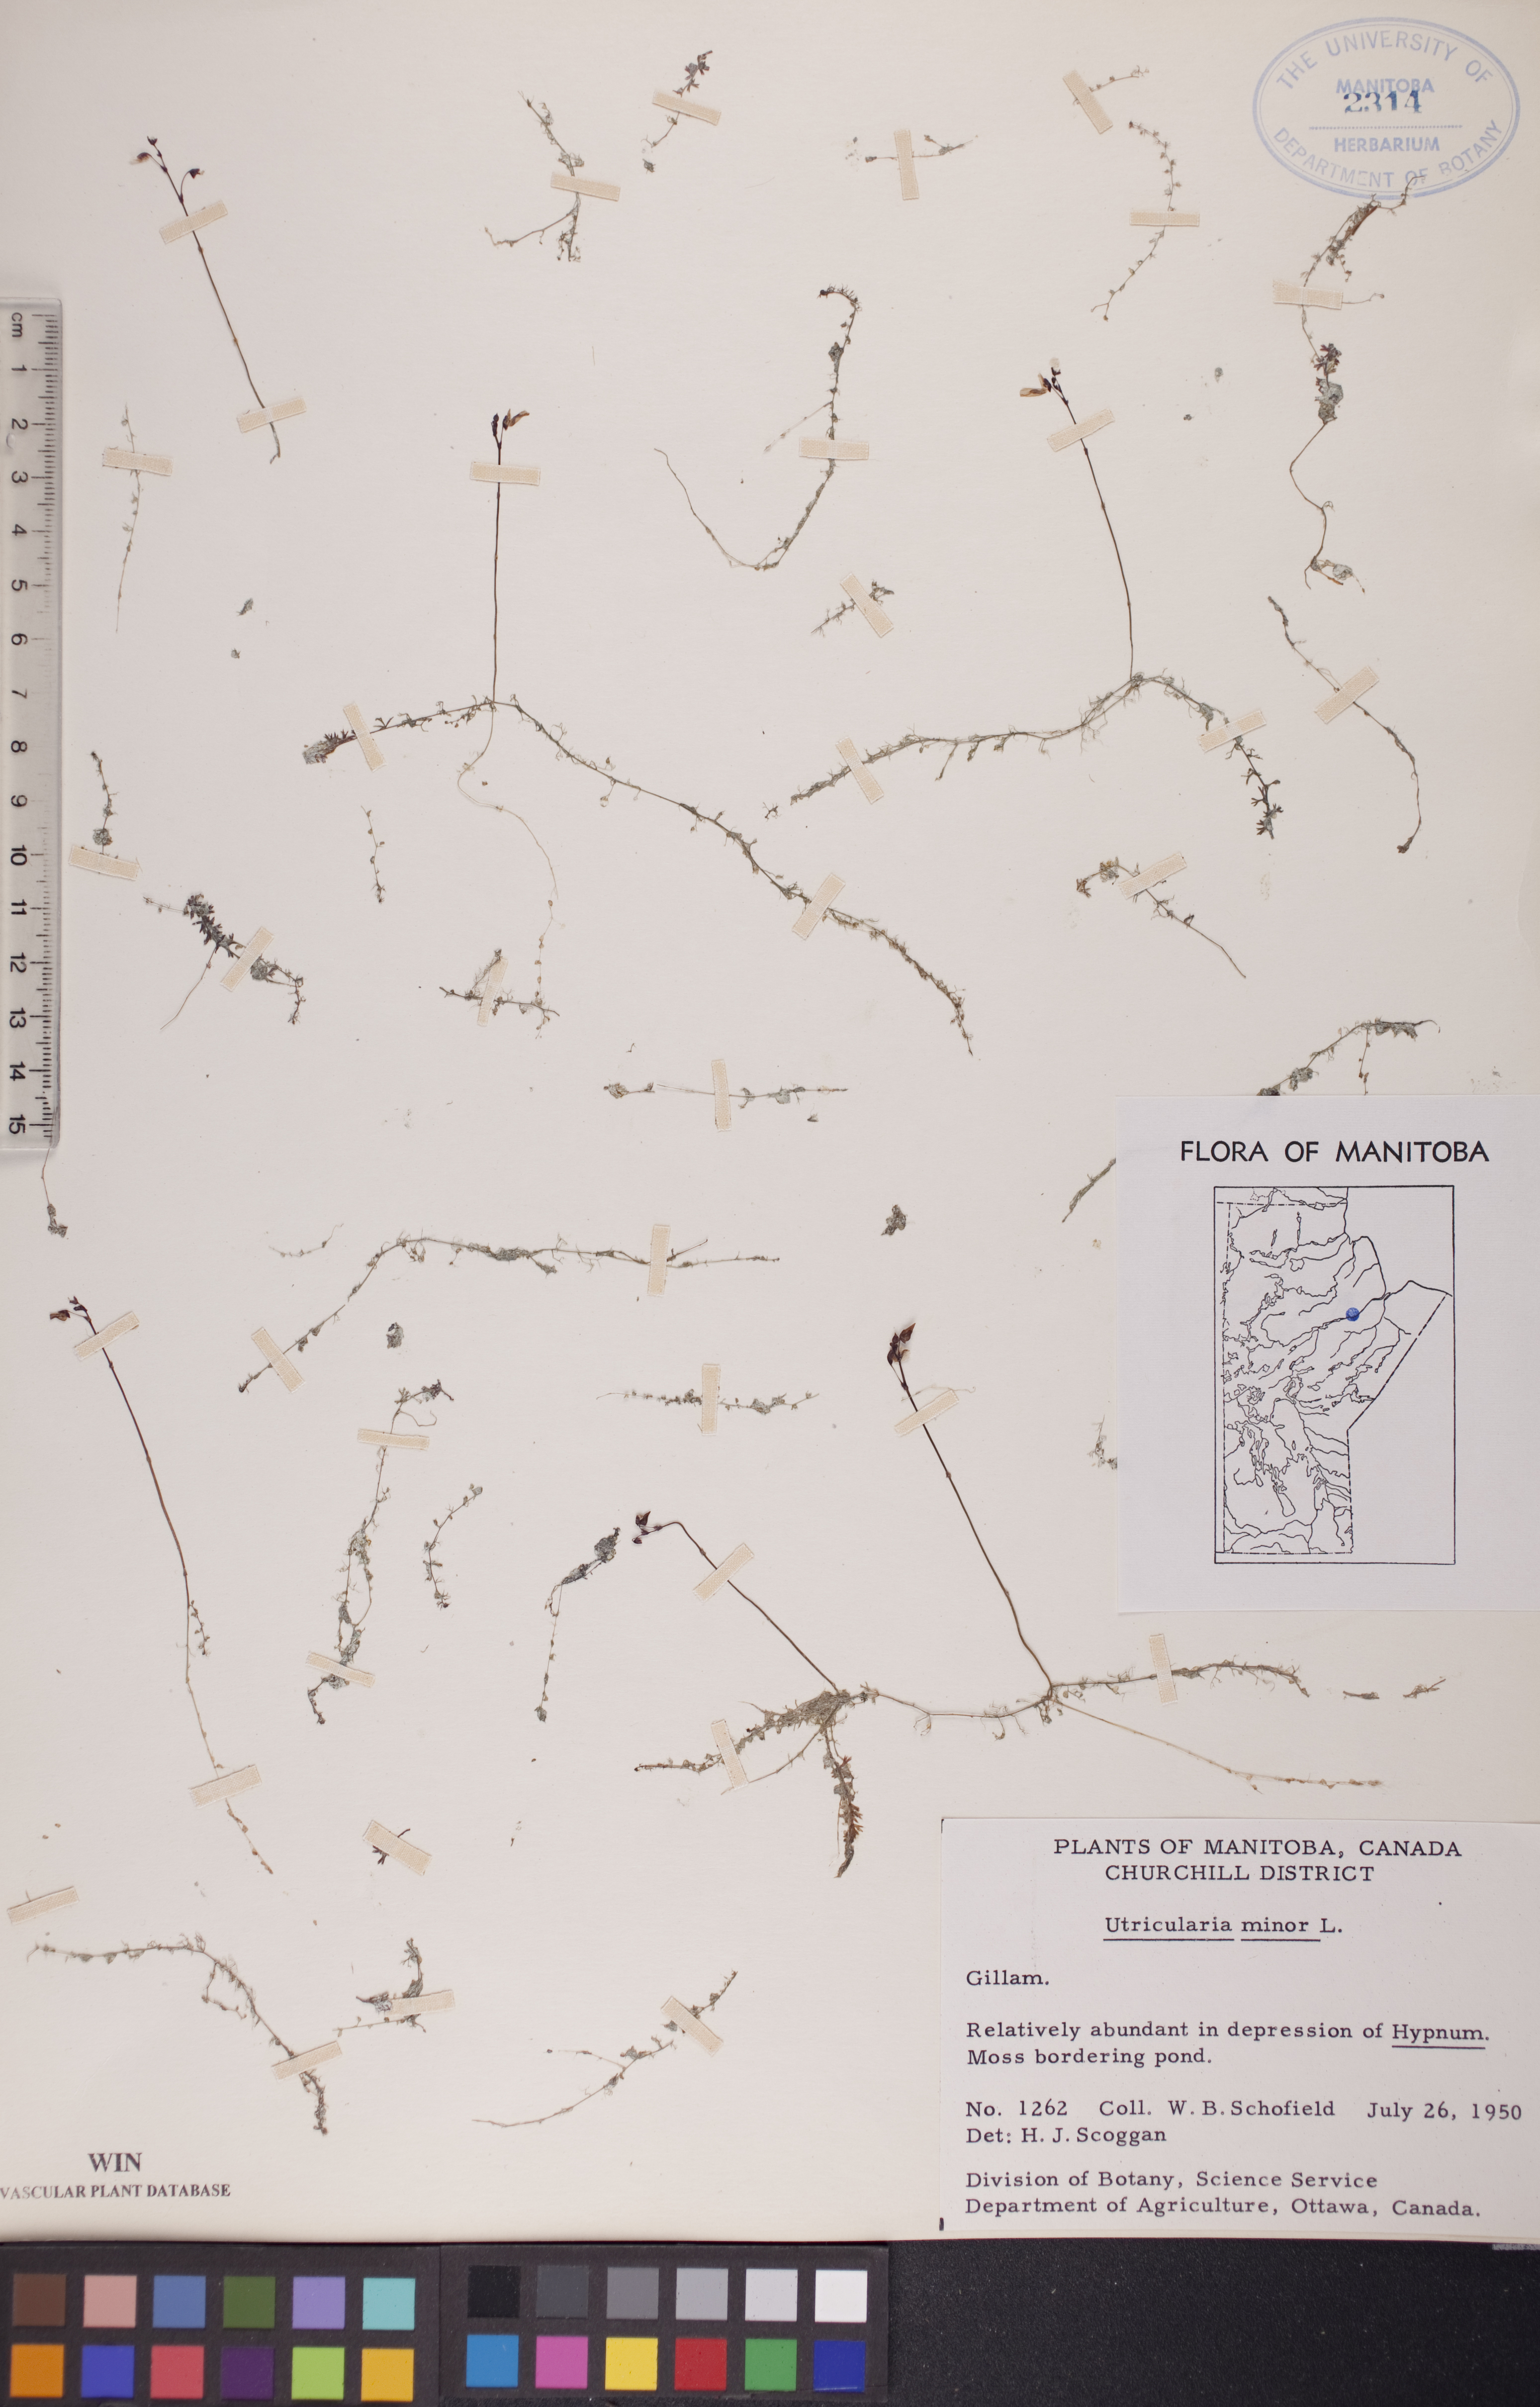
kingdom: Plantae
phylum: Tracheophyta
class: Magnoliopsida
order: Lamiales
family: Lentibulariaceae
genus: Utricularia
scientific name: Utricularia minor
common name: Lesser bladderwort
